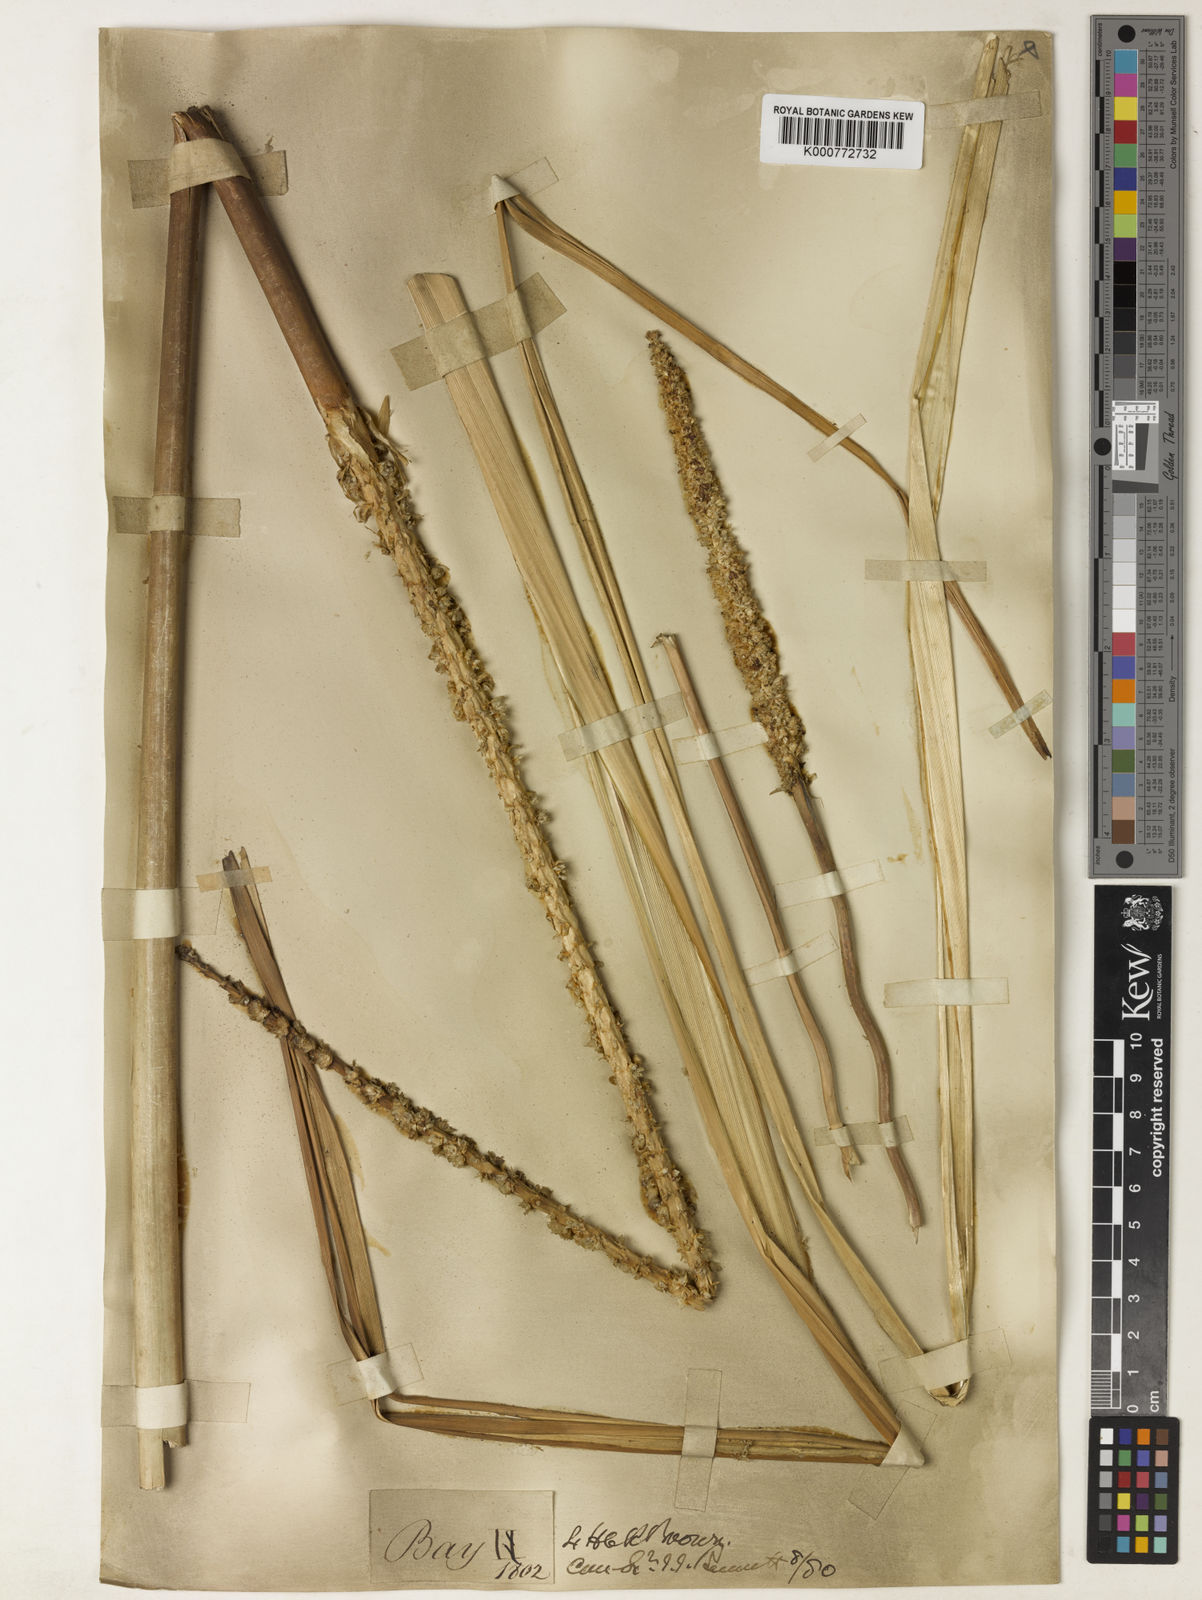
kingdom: Plantae
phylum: Tracheophyta
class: Liliopsida
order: Asparagales
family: Asparagaceae
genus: Lomandra
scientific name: Lomandra hastilis
